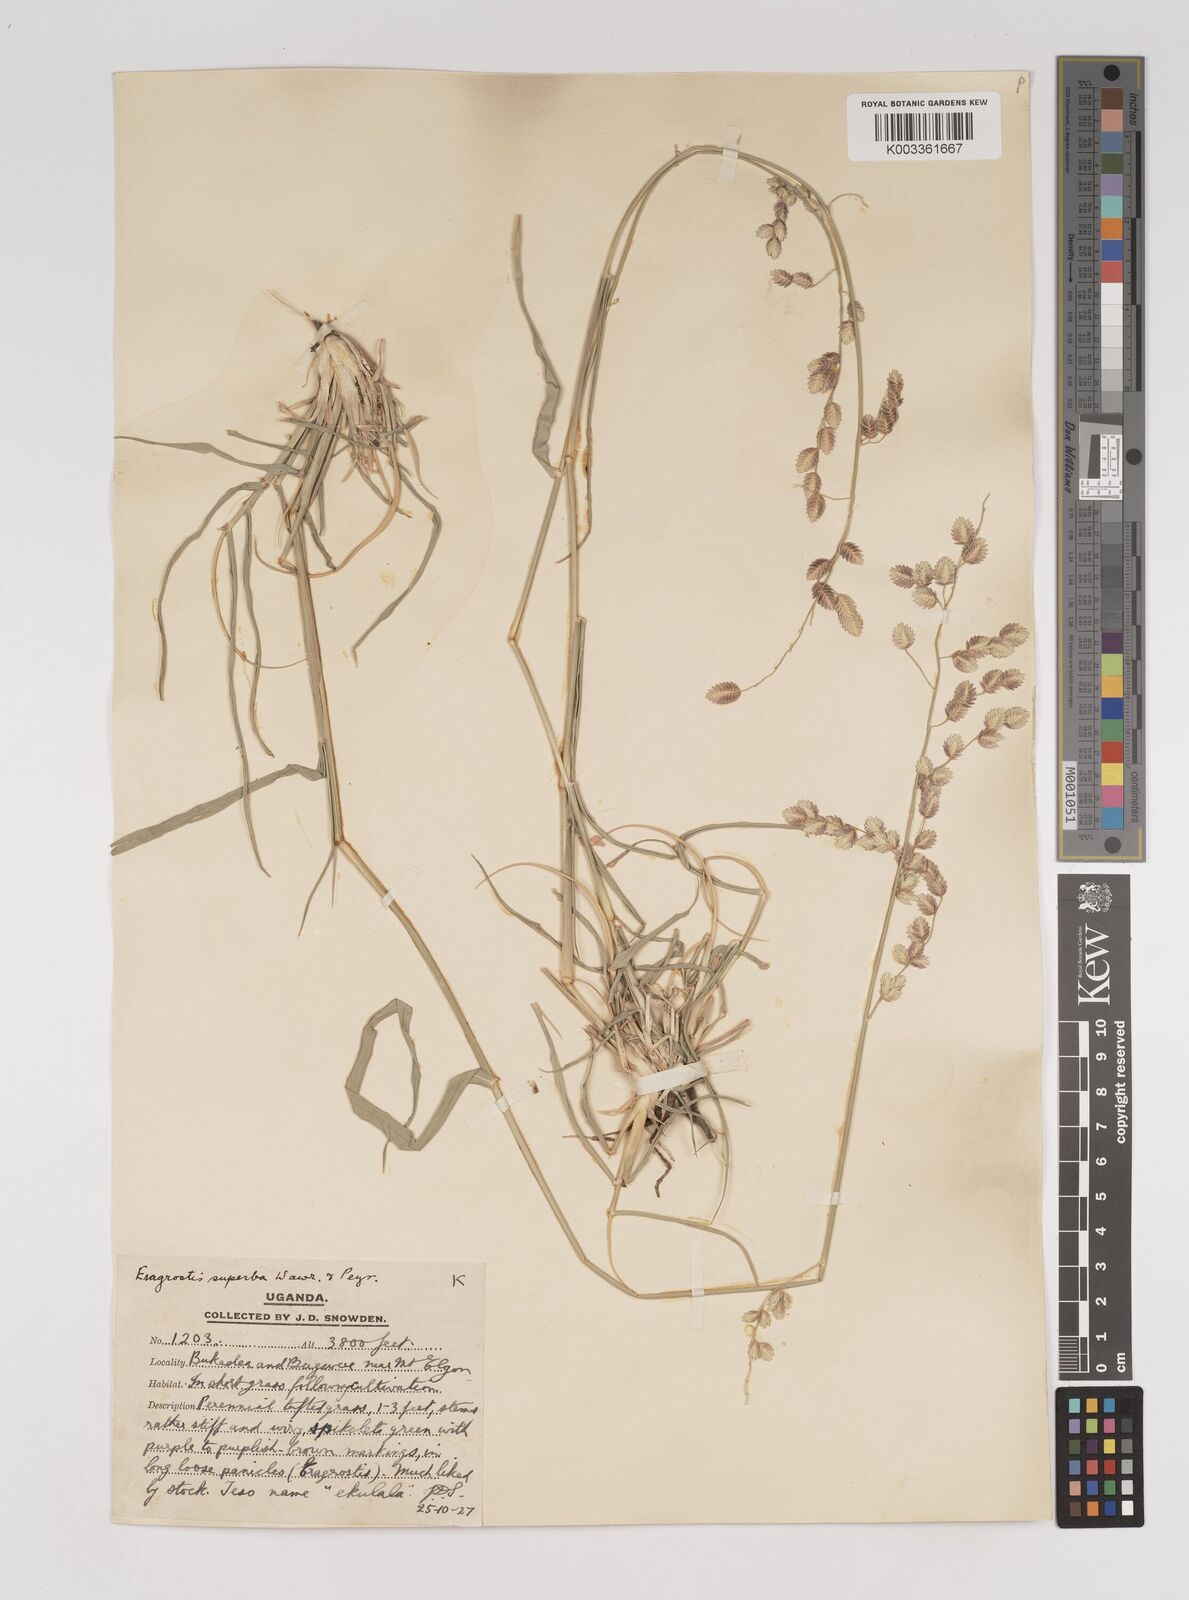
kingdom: Plantae
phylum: Tracheophyta
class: Liliopsida
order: Poales
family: Poaceae
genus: Eragrostis
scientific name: Eragrostis superba
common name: Wilman lovegrass
